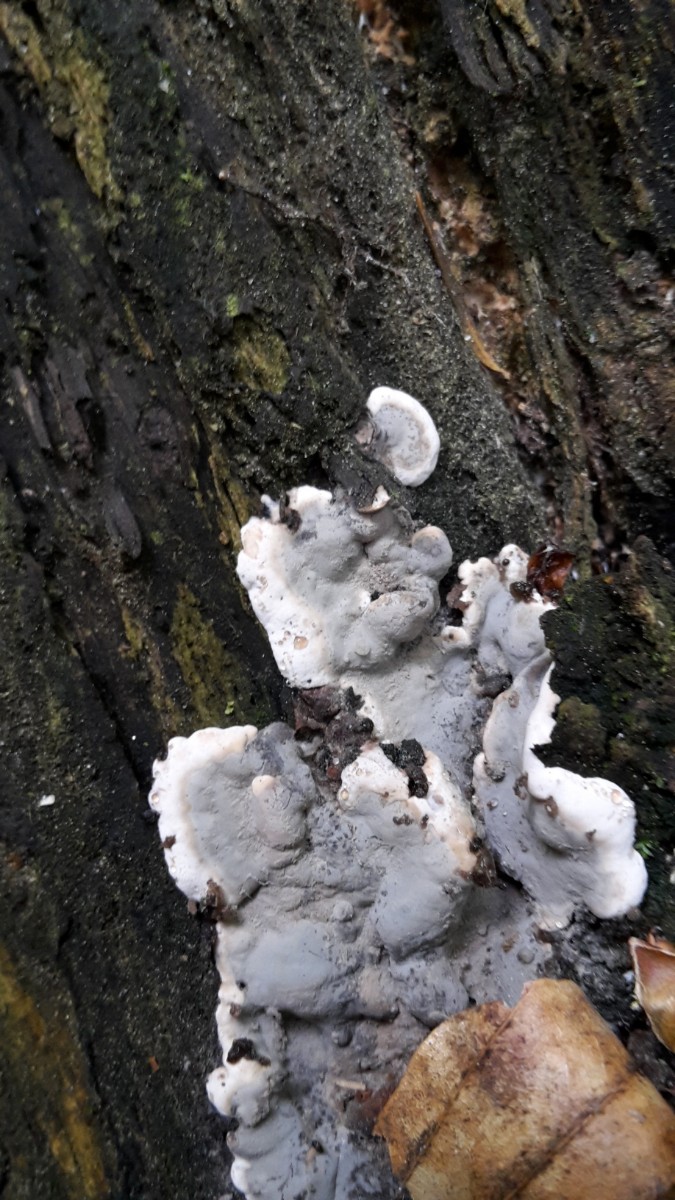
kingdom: Fungi
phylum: Ascomycota
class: Sordariomycetes
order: Xylariales
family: Xylariaceae
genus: Kretzschmaria
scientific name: Kretzschmaria deusta
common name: stor kulsvamp
